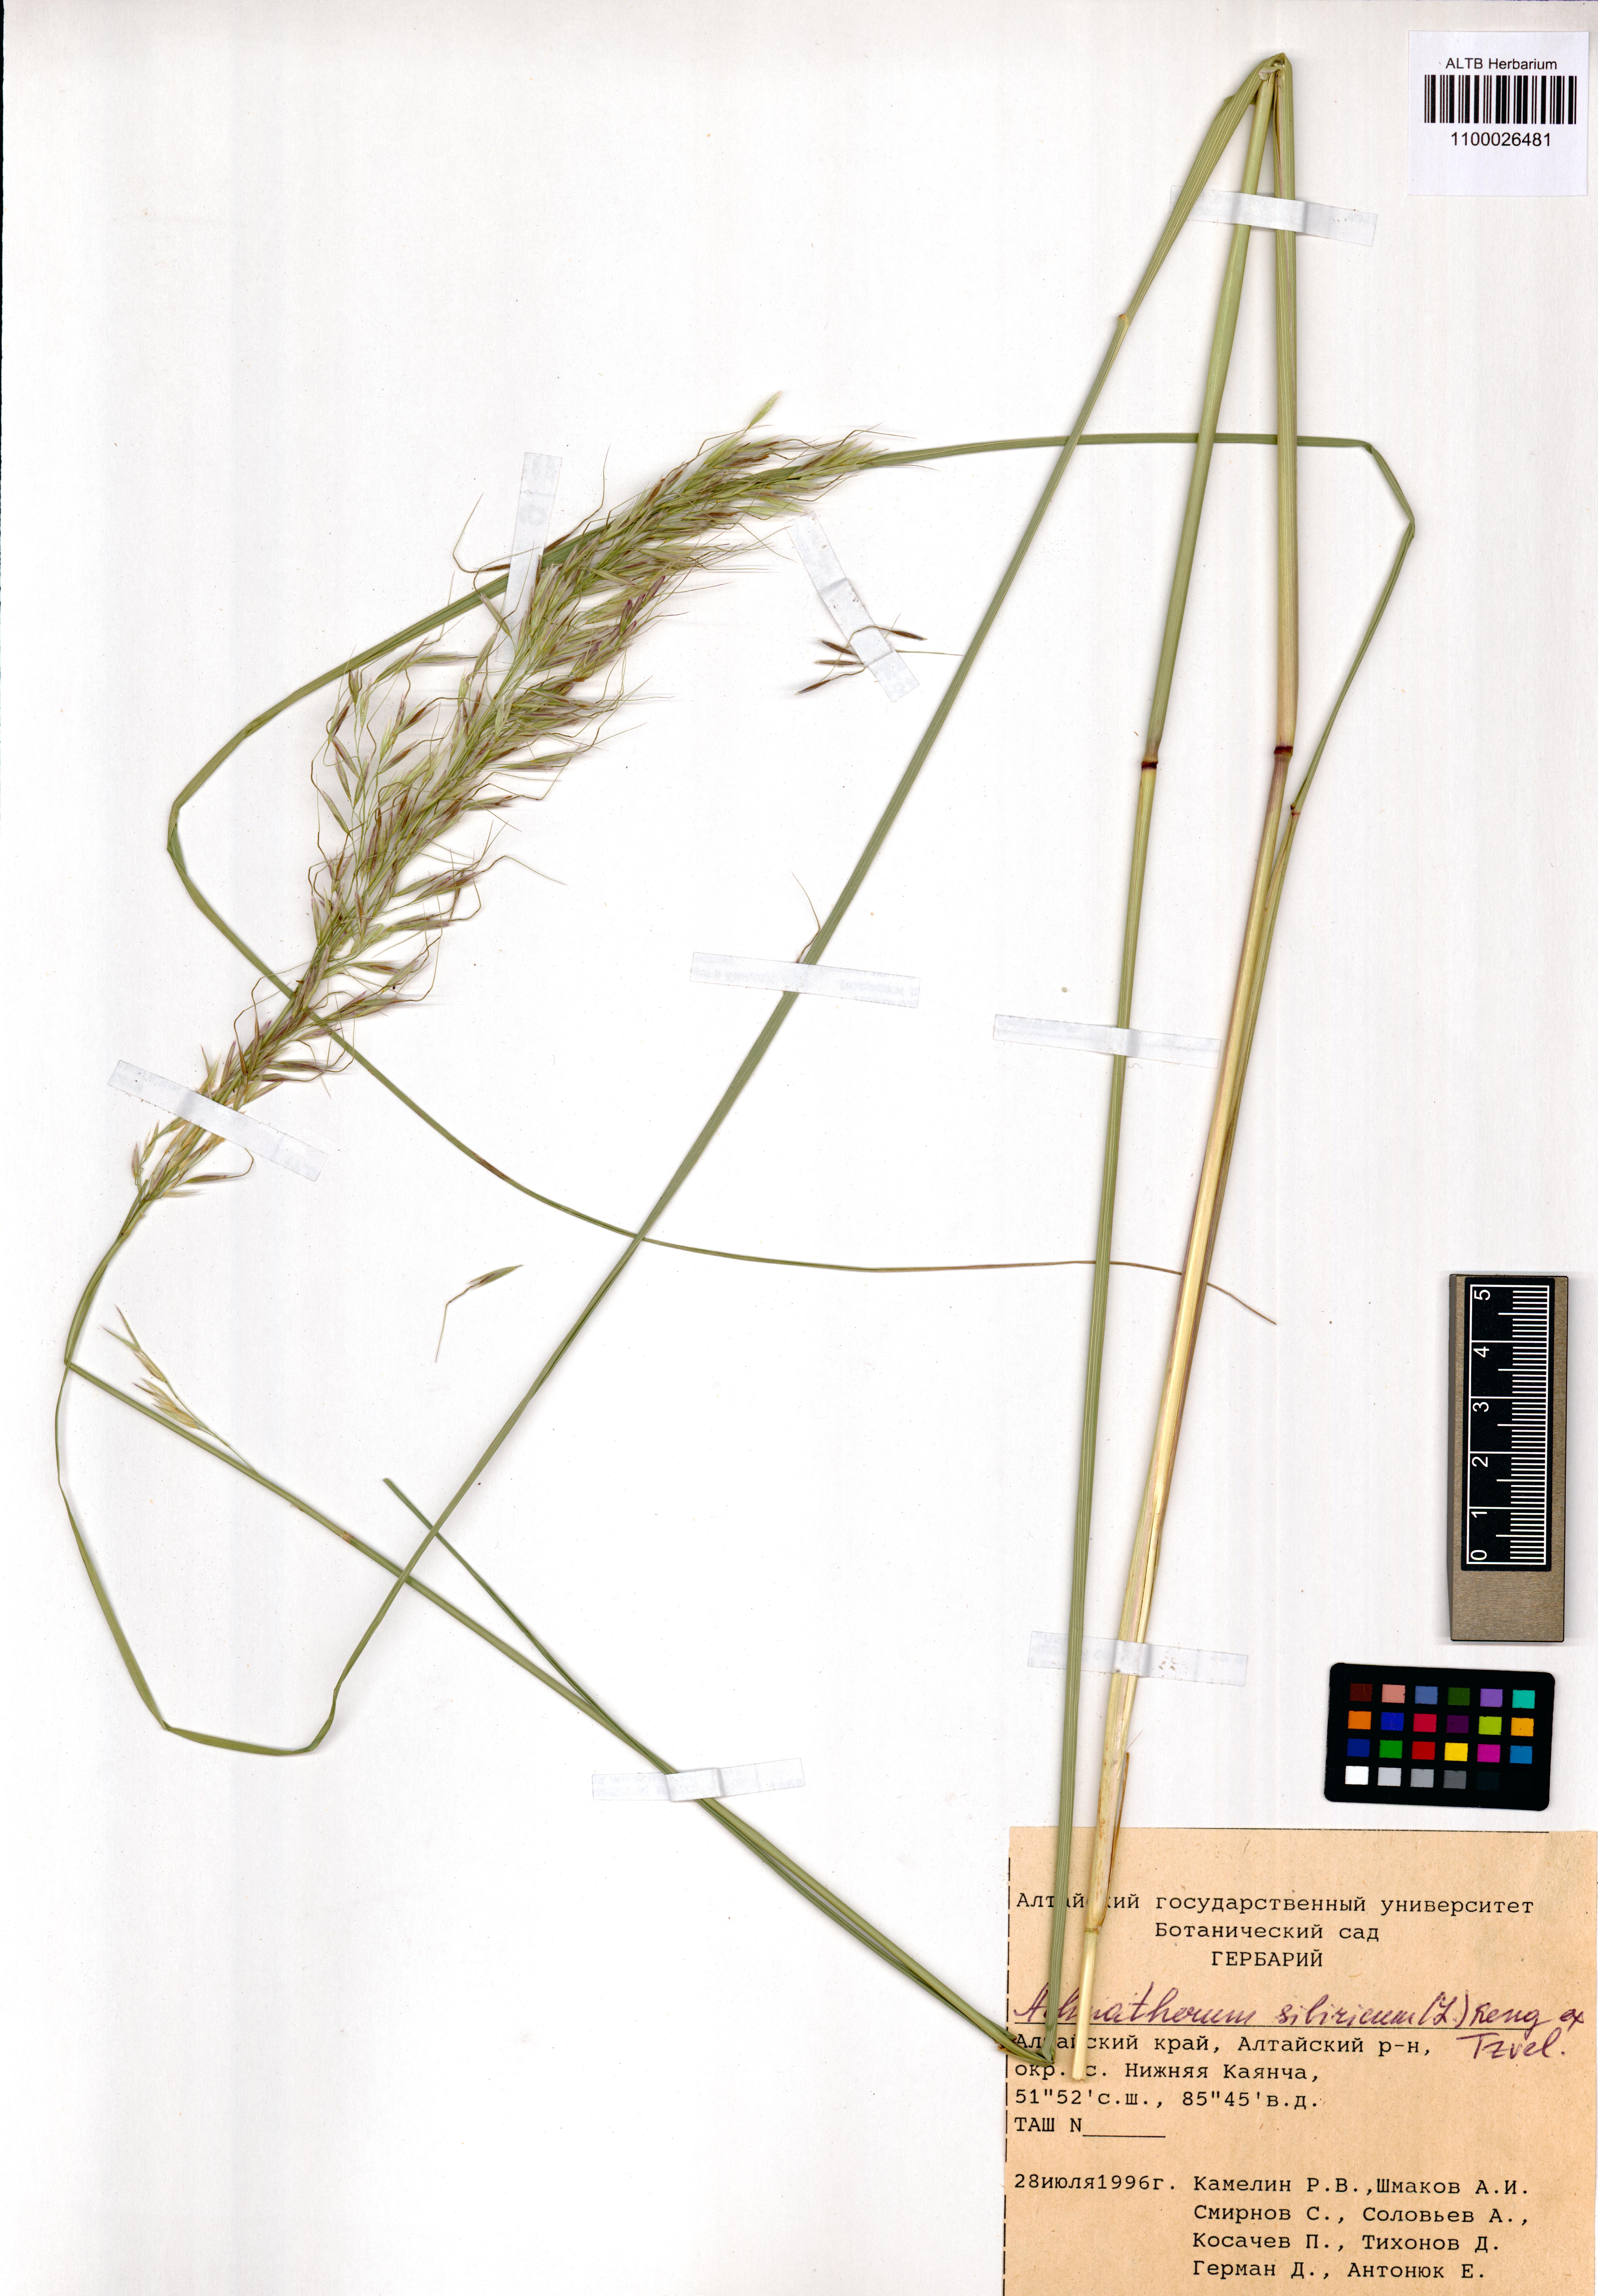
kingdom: Plantae
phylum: Tracheophyta
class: Liliopsida
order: Poales
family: Poaceae
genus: Achnatherum
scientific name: Achnatherum sibiricum
